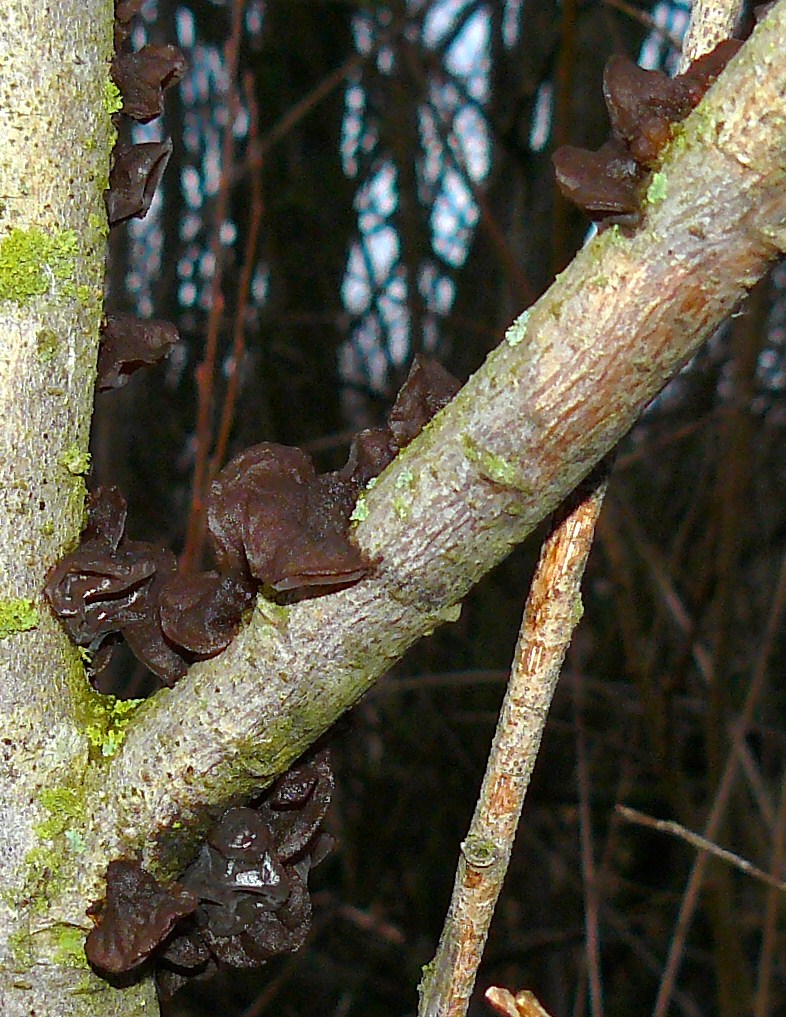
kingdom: Fungi
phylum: Basidiomycota
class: Agaricomycetes
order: Auriculariales
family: Auriculariaceae
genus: Exidia
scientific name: Exidia recisa
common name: pile-bævretop
